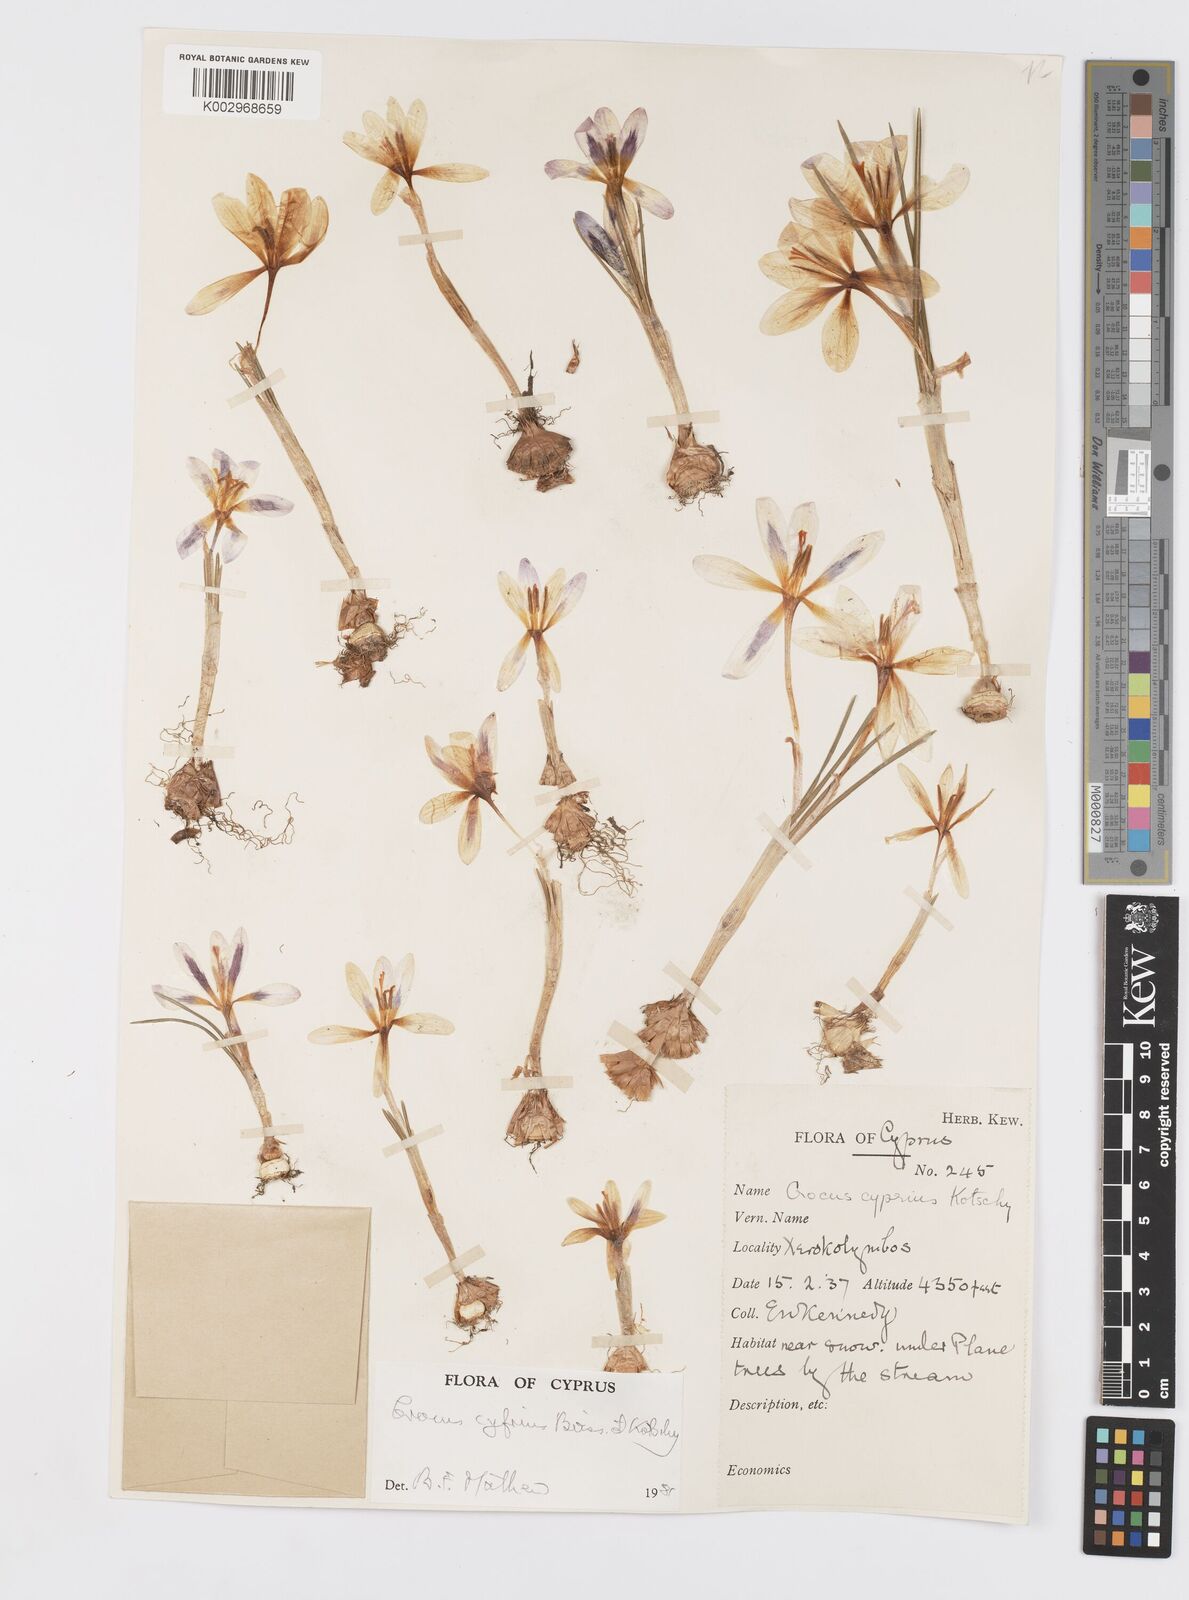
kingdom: Plantae
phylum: Tracheophyta
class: Liliopsida
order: Asparagales
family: Iridaceae
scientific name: Iridaceae
